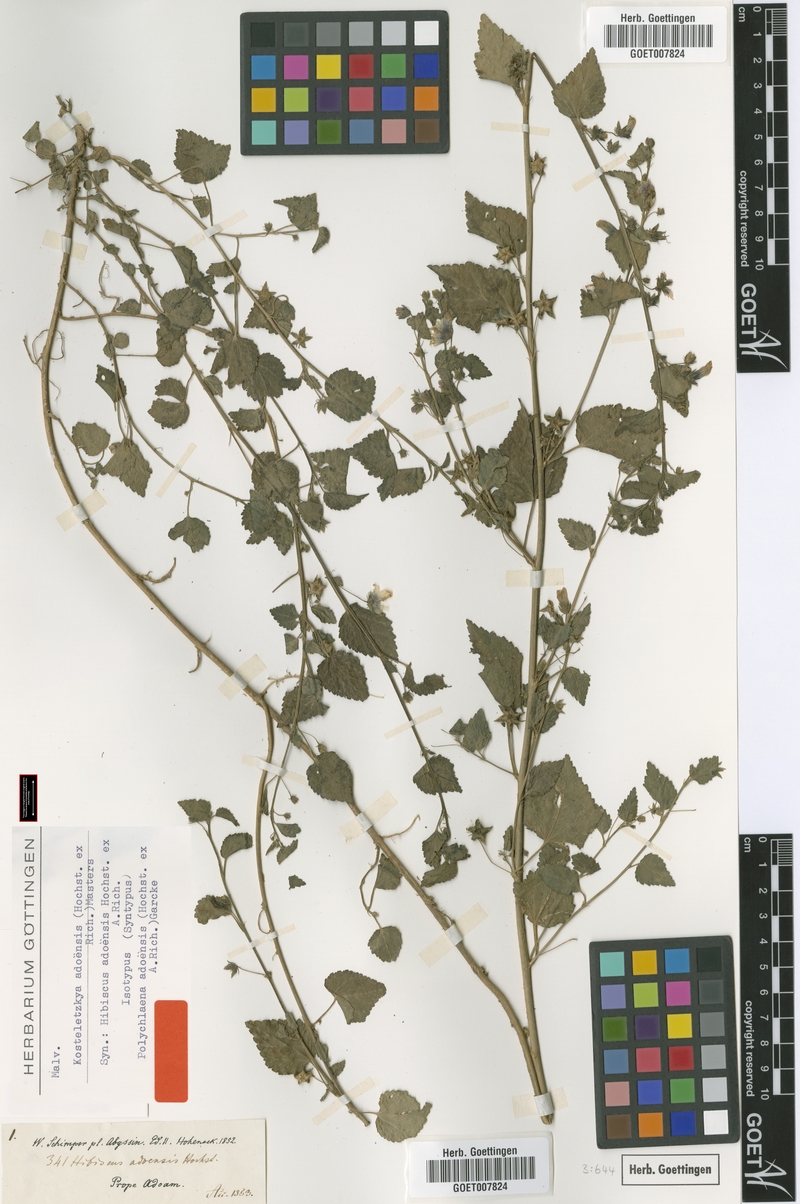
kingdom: Plantae
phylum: Tracheophyta
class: Magnoliopsida
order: Malvales
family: Malvaceae
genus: Kosteletzkya
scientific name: Kosteletzkya adoensis
